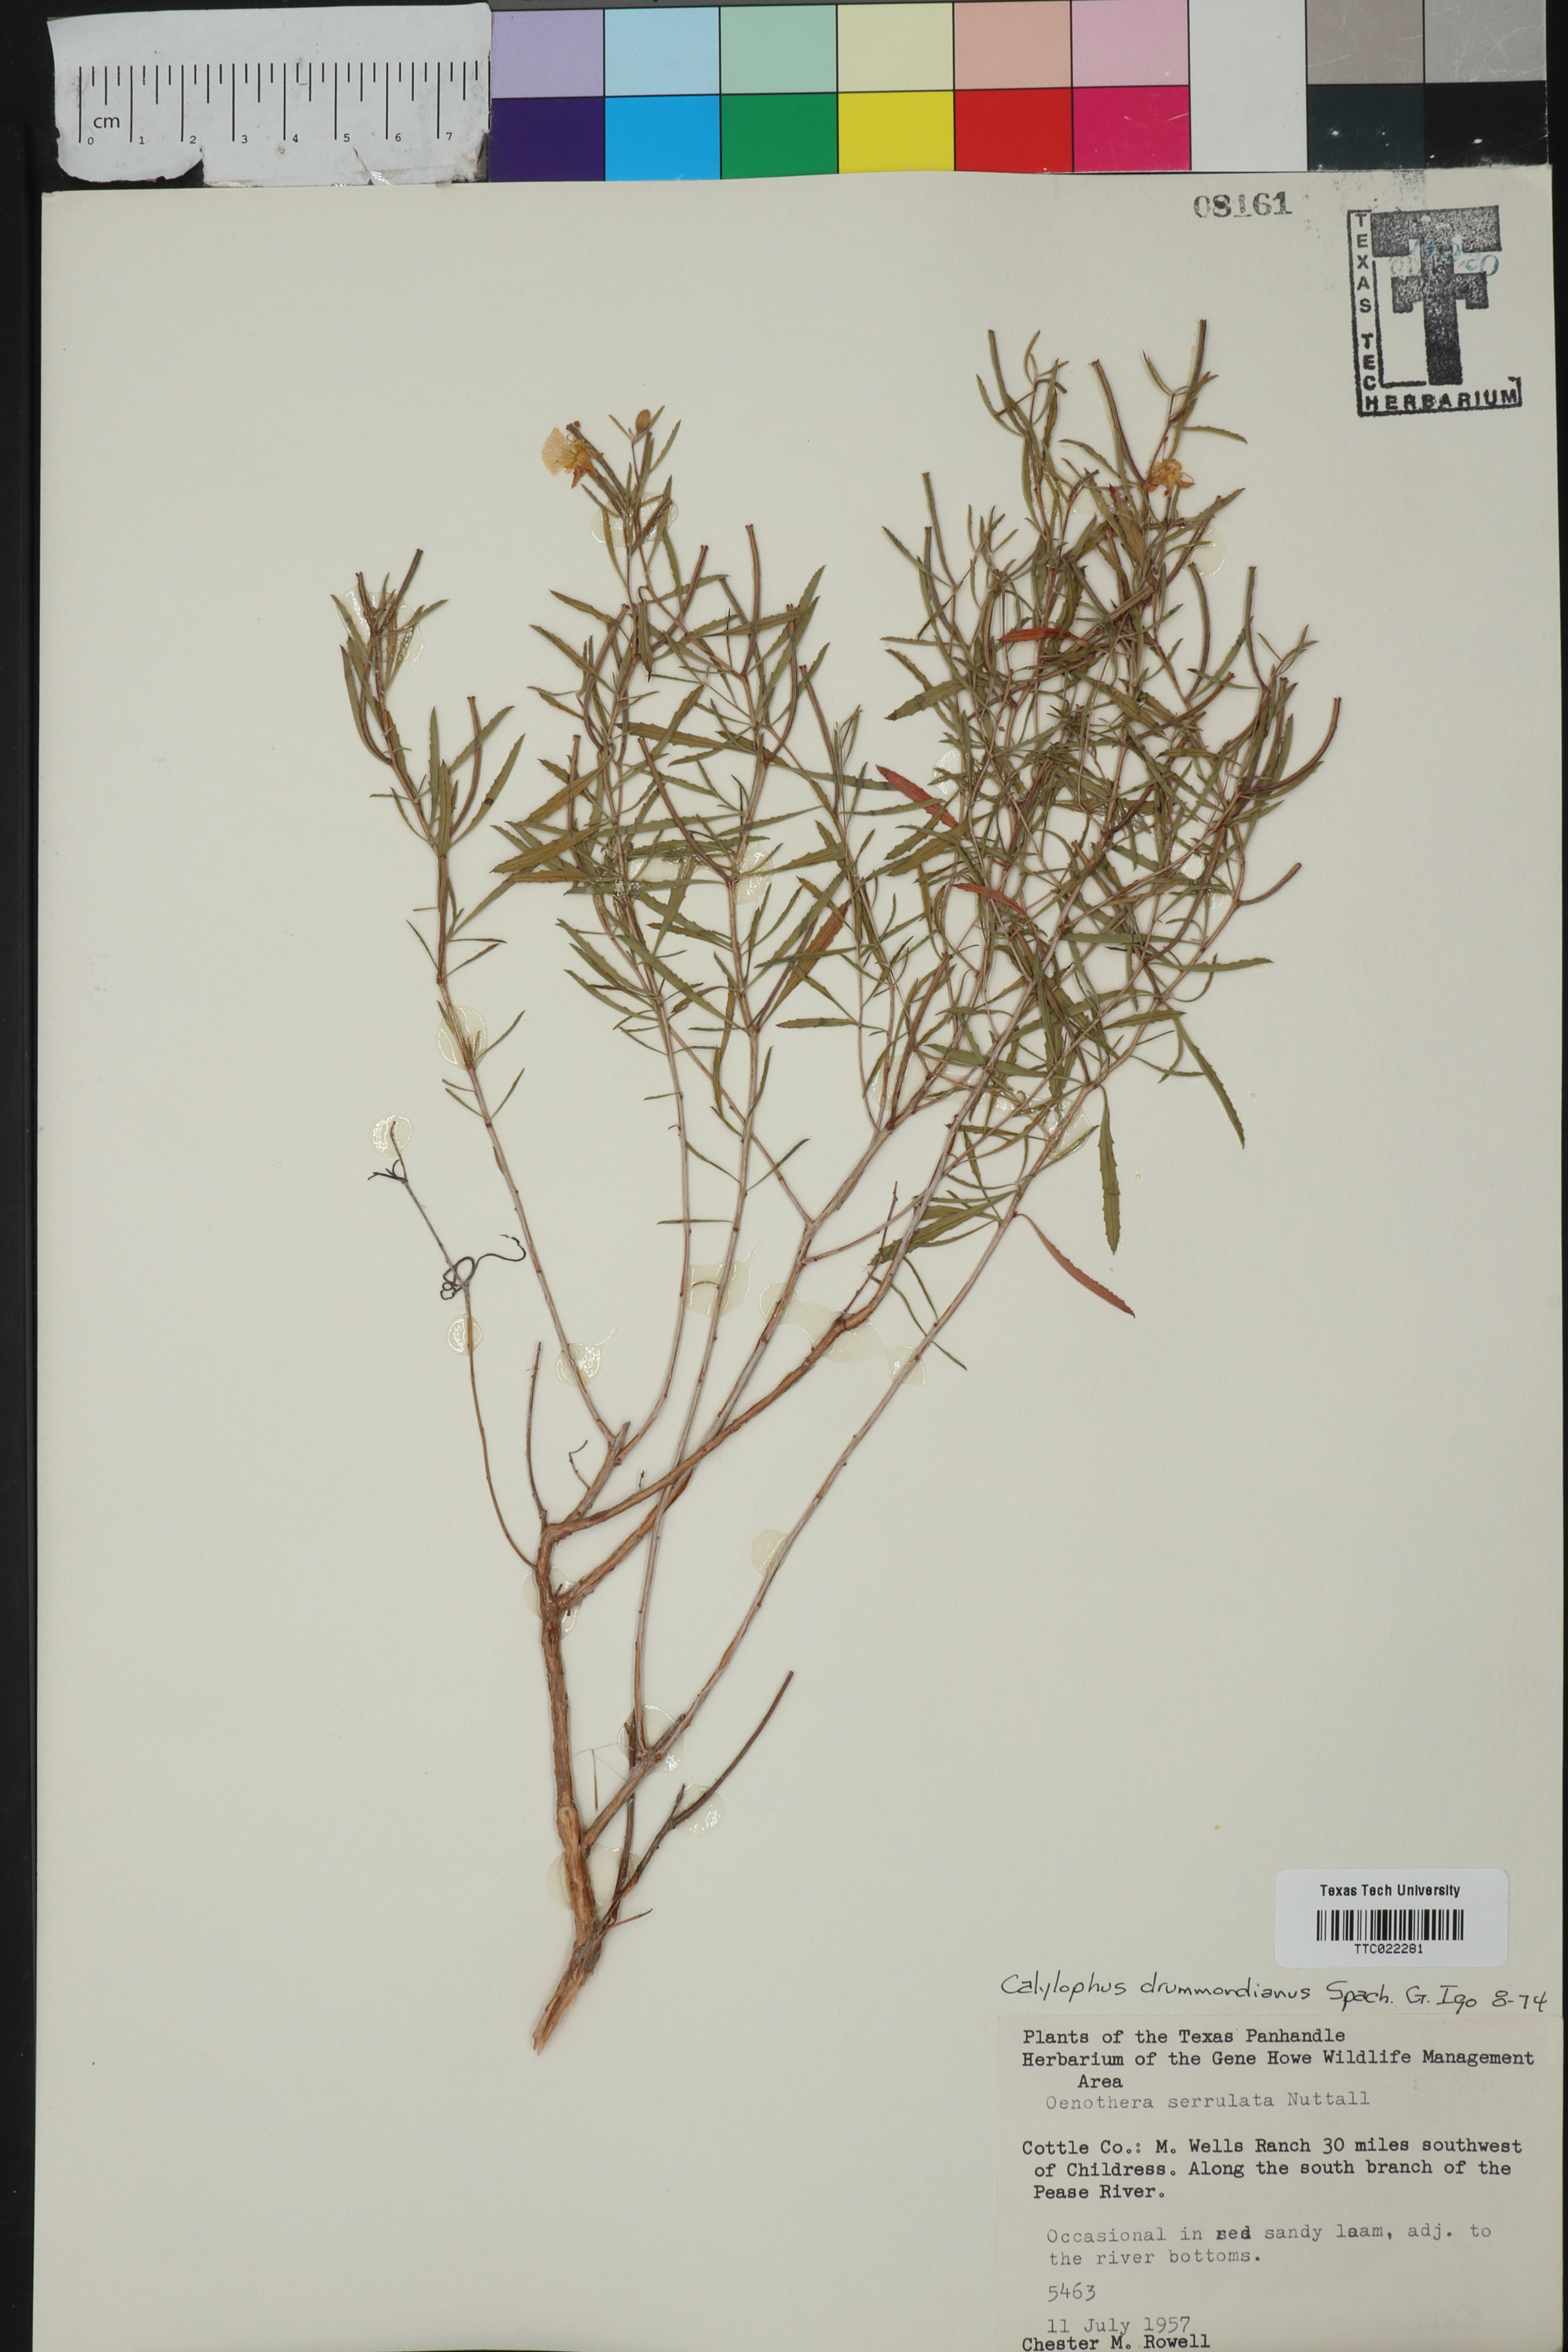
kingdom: Plantae
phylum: Tracheophyta
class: Magnoliopsida
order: Myrtales
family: Onagraceae
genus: Oenothera
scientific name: Oenothera serrulata
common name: Half-shrub calylophus
